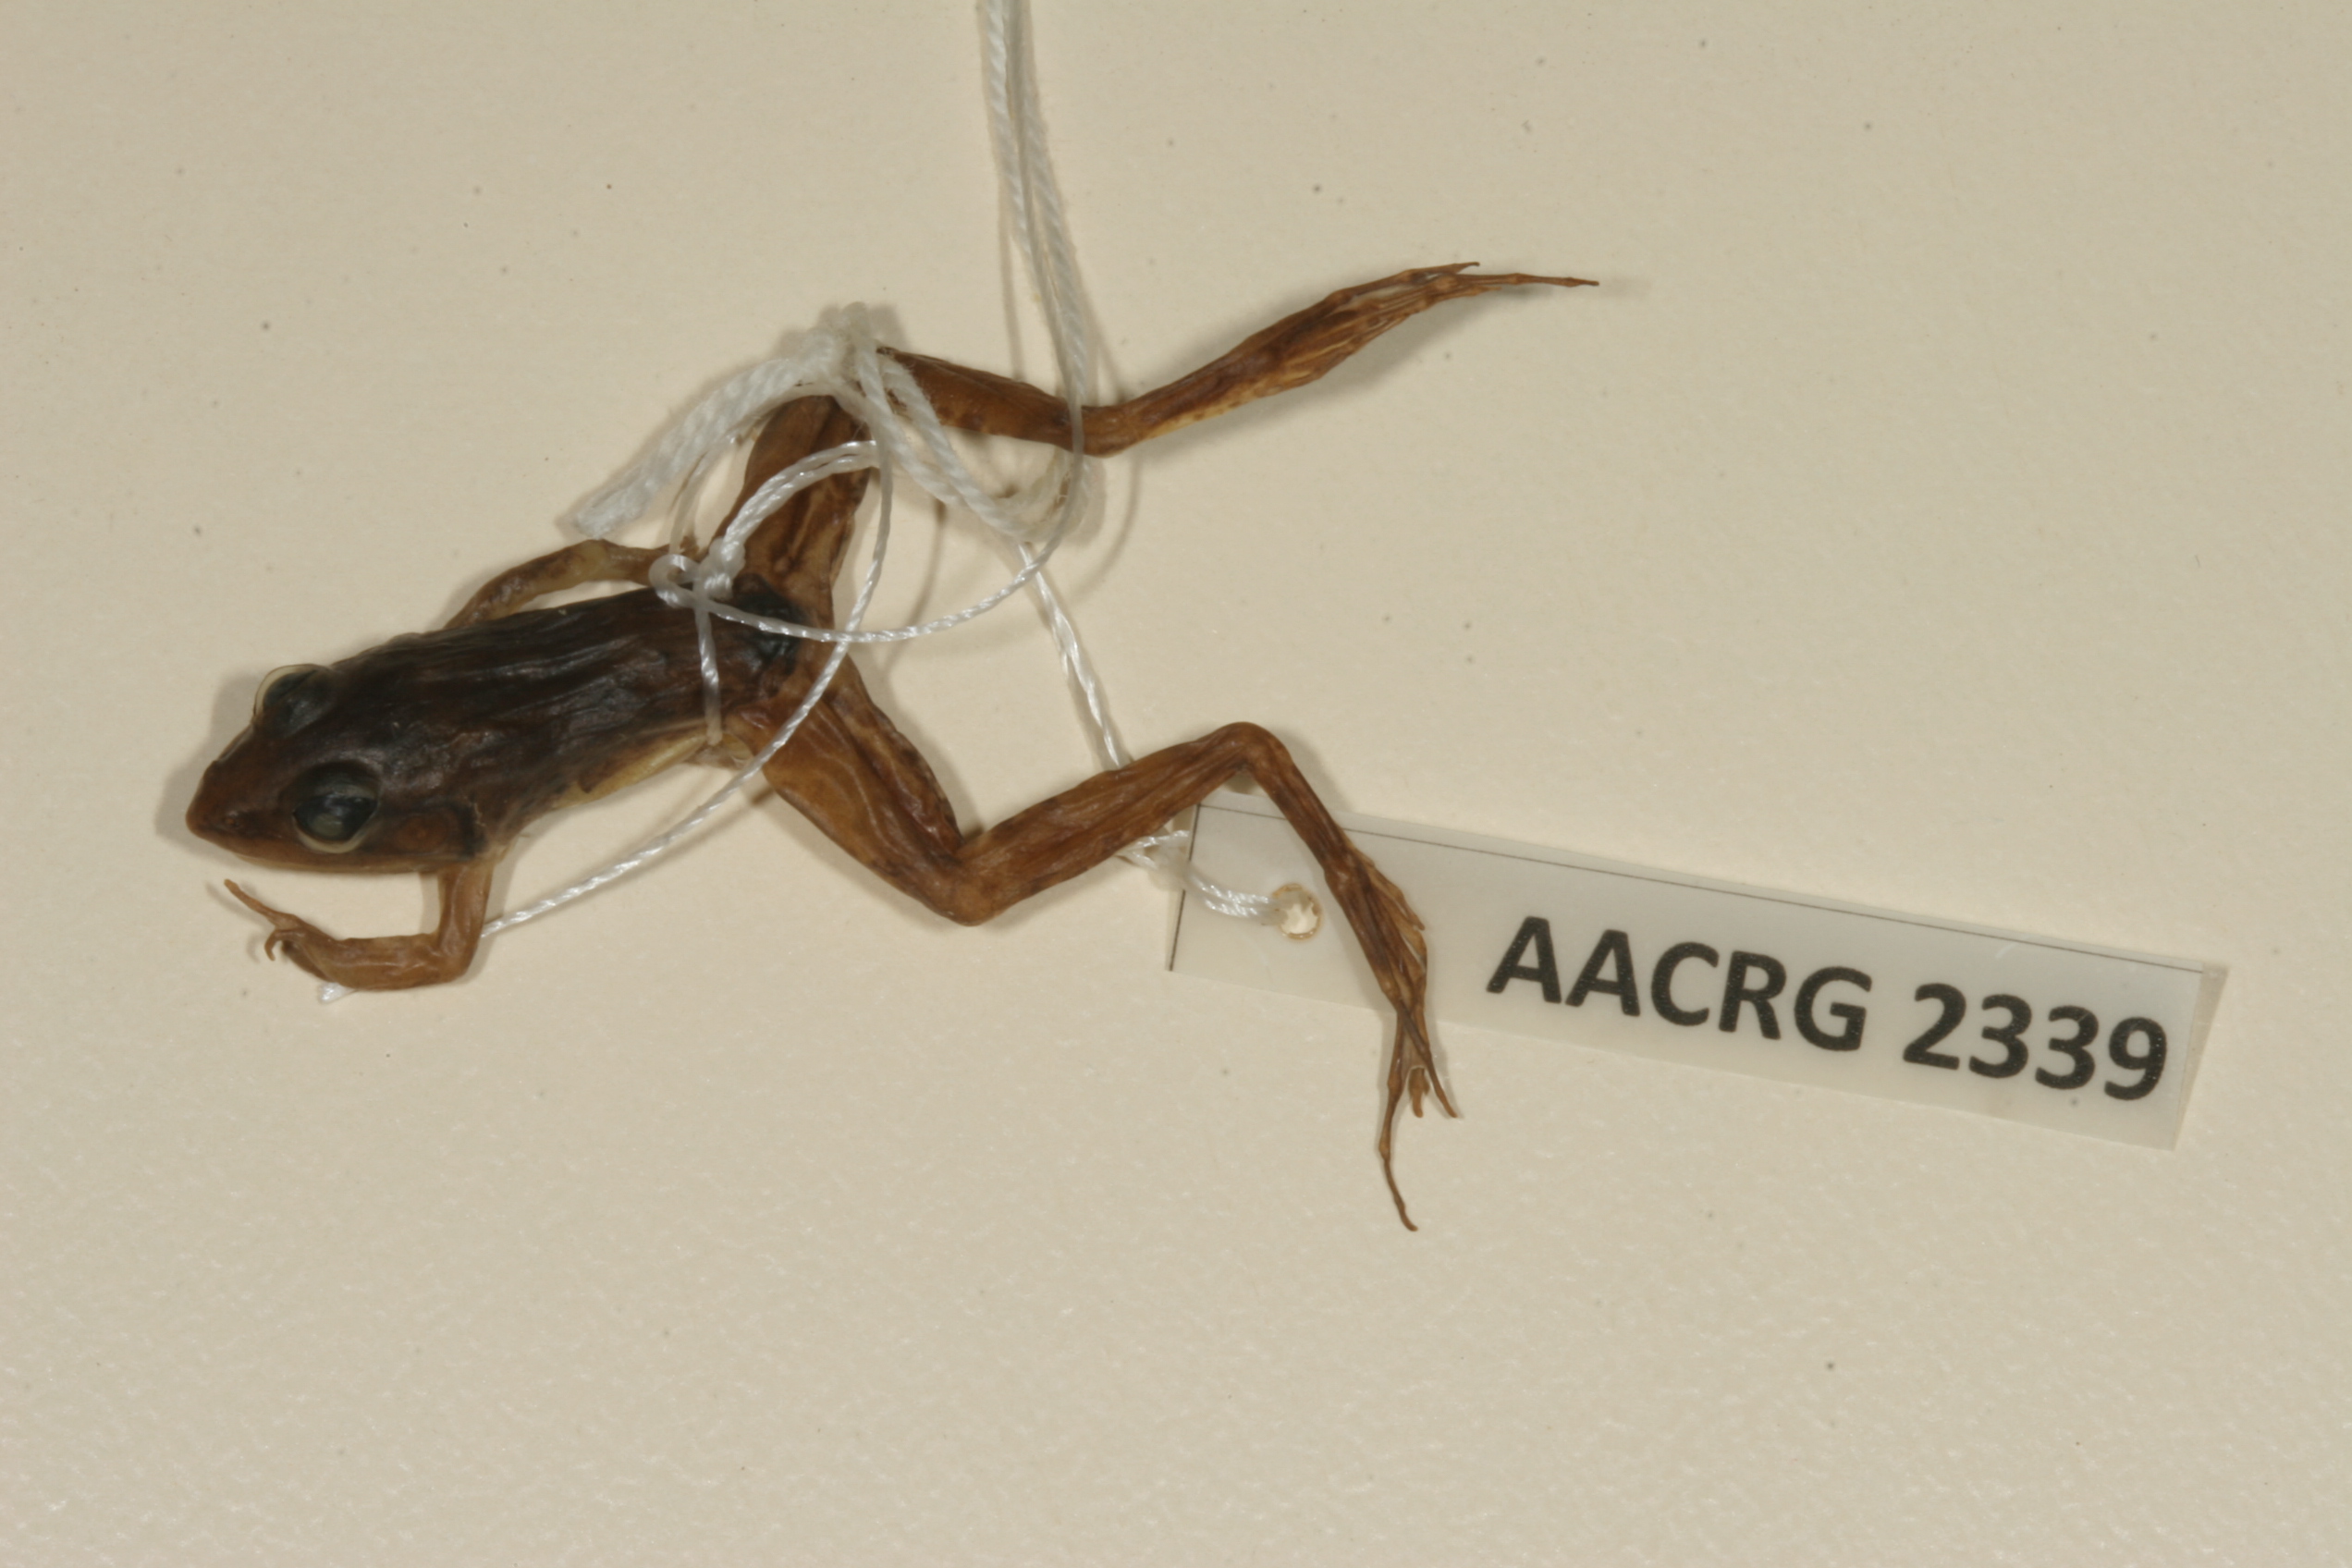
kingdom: Animalia
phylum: Chordata
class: Amphibia
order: Anura
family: Ptychadenidae
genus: Ptychadena
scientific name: Ptychadena mascareniensis
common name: Mascarene grass frog
